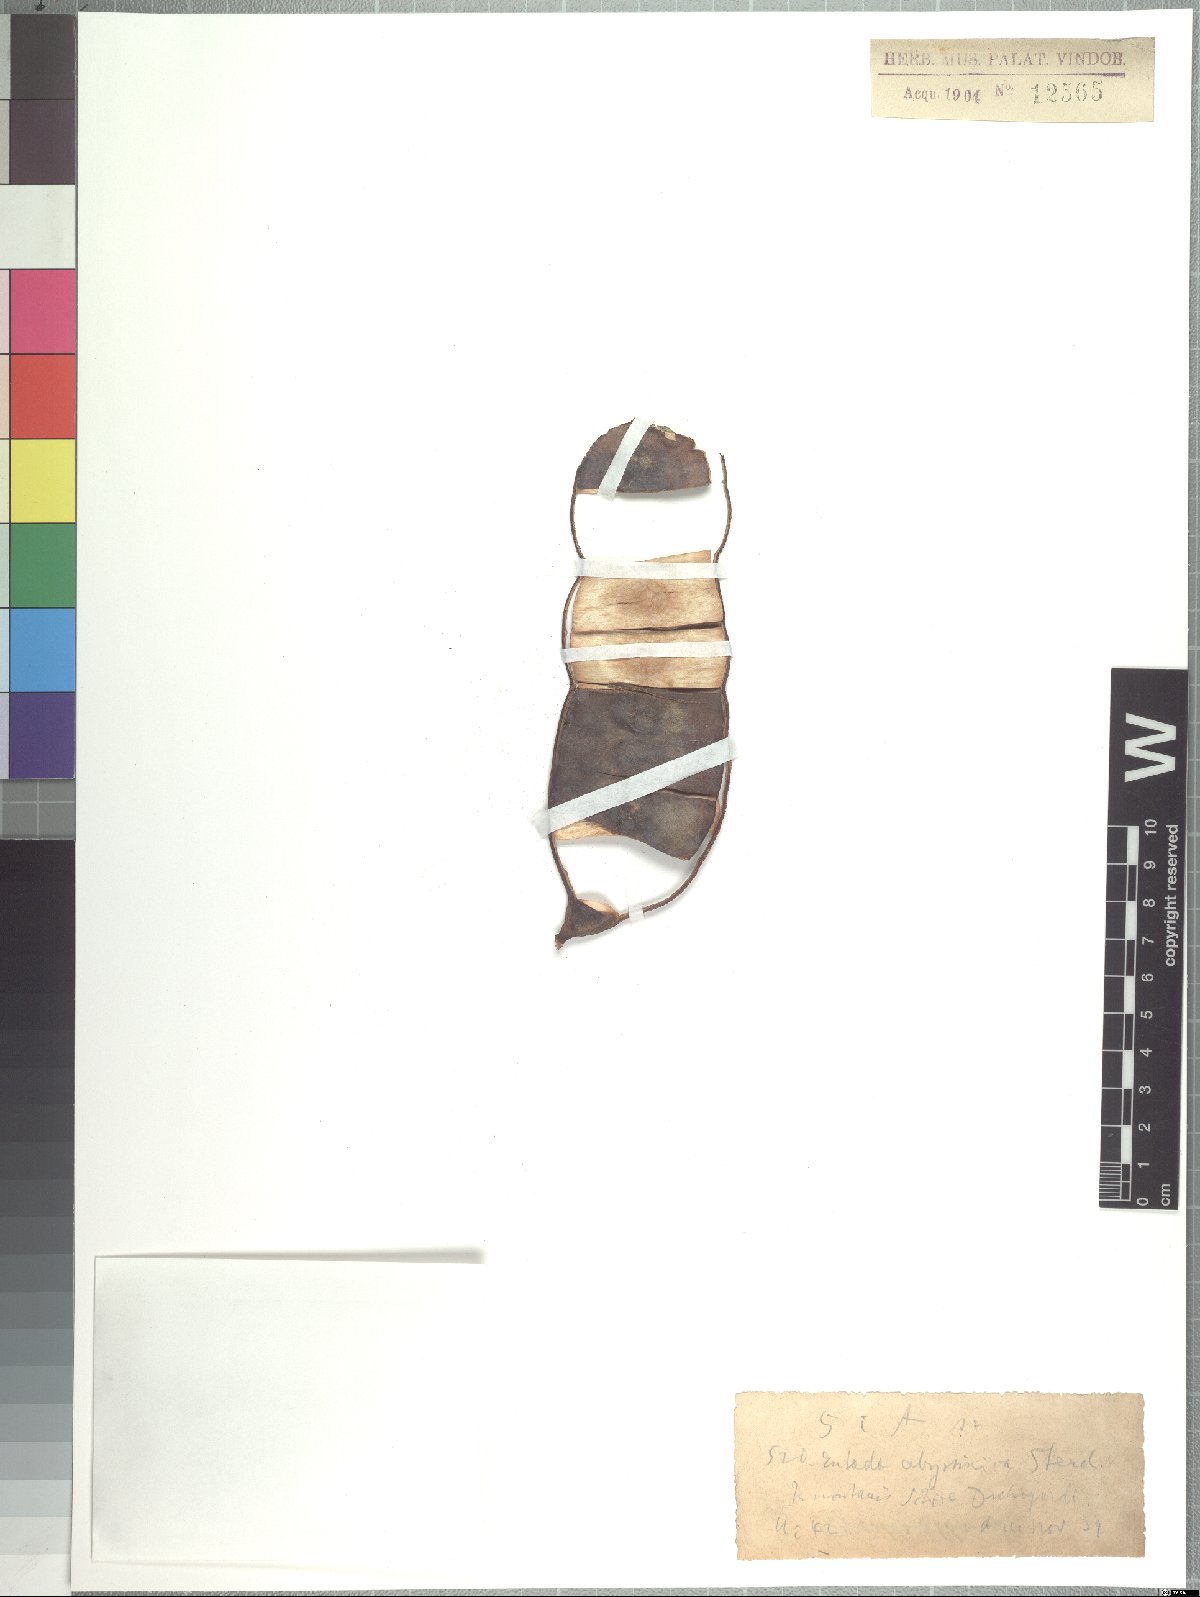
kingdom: Plantae
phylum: Tracheophyta
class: Magnoliopsida
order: Fabales
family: Fabaceae
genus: Entada
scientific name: Entada abyssinica
